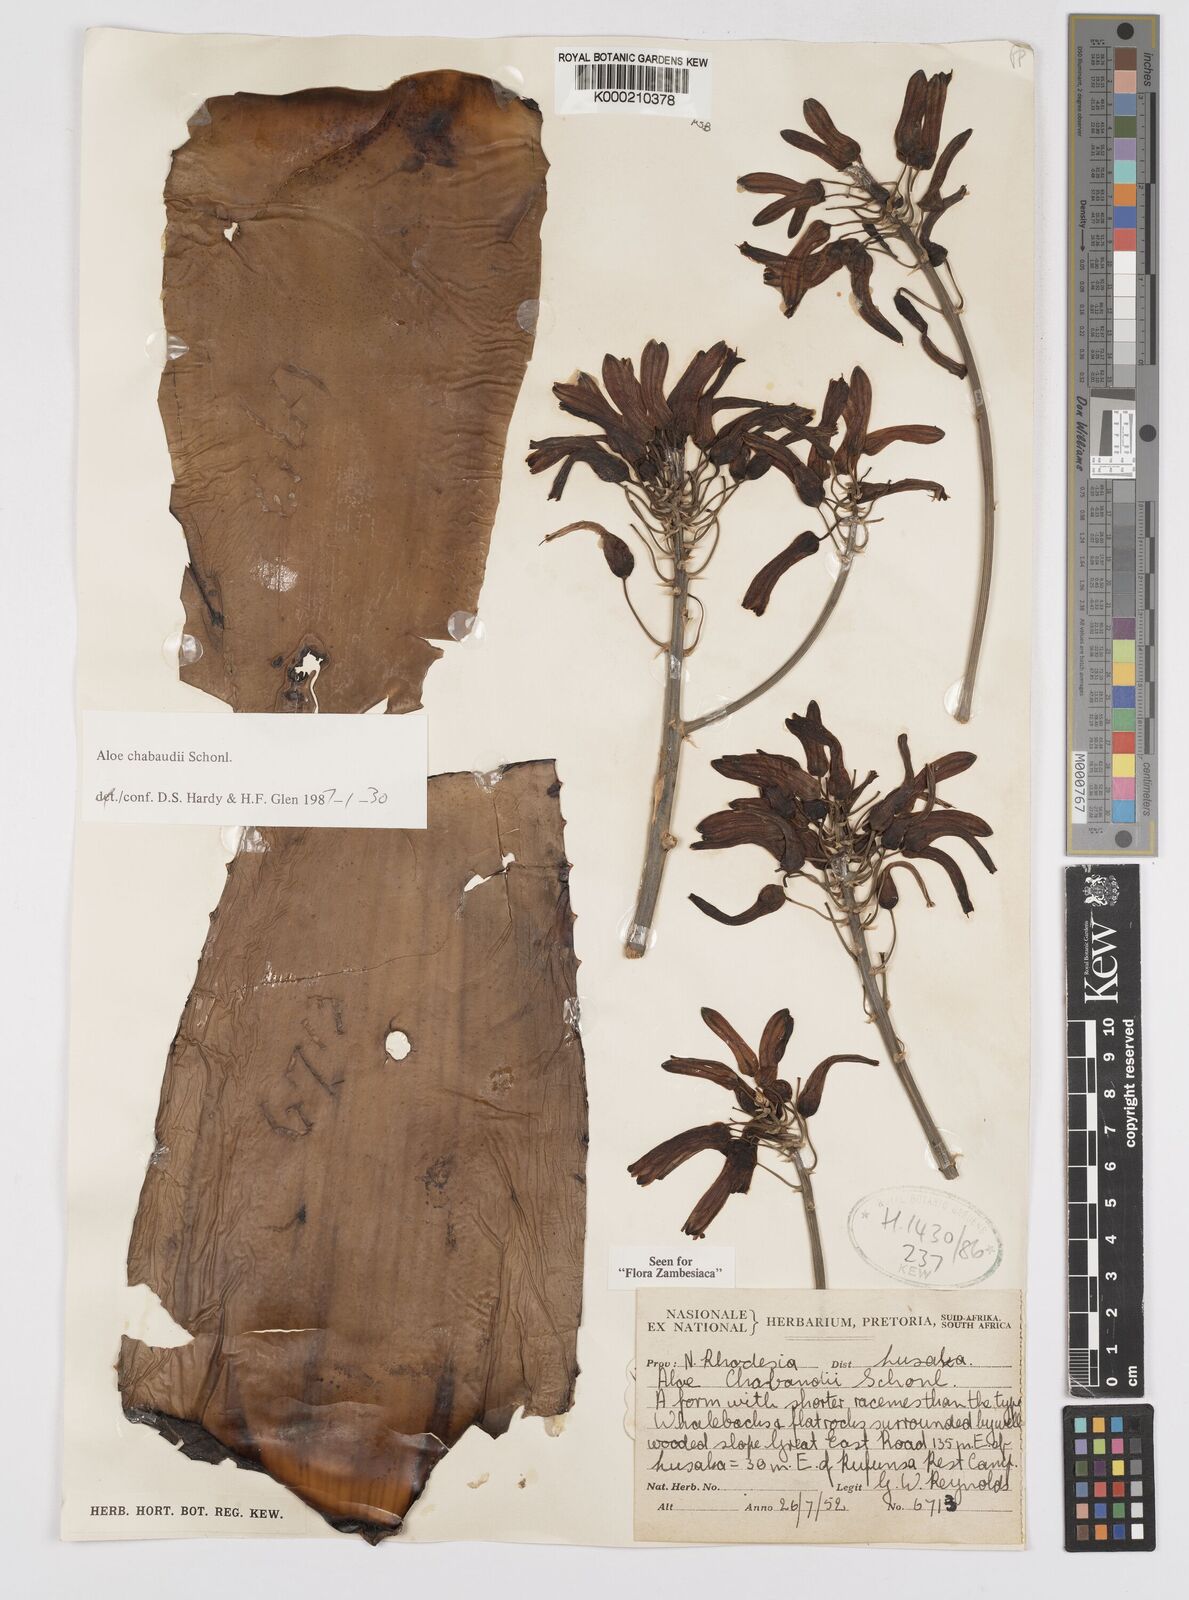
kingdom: Plantae
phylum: Tracheophyta
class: Liliopsida
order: Asparagales
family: Asphodelaceae
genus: Aloe
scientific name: Aloe chabaudii
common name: Chabaud's aloe
